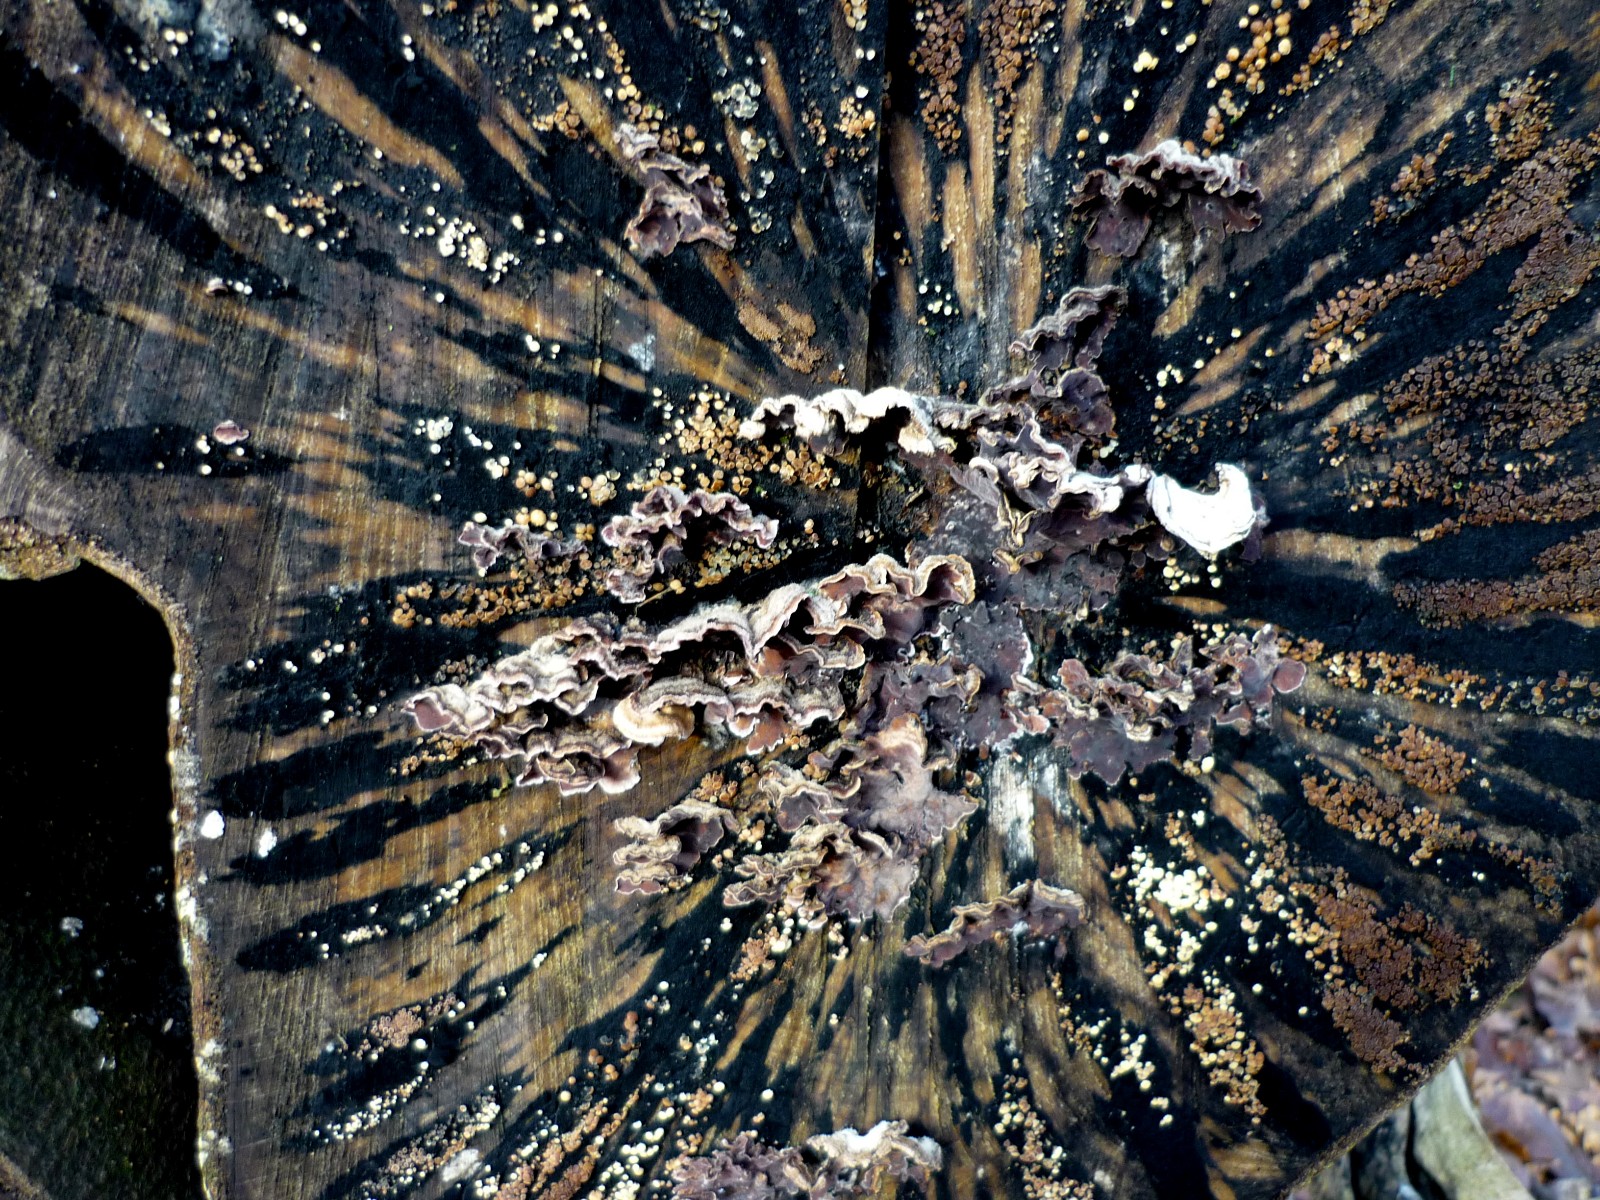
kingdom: Fungi
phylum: Ascomycota
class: Leotiomycetes
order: Helotiales
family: Helotiaceae
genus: Bispora
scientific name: Bispora pallescens
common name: måtte-snitskive
